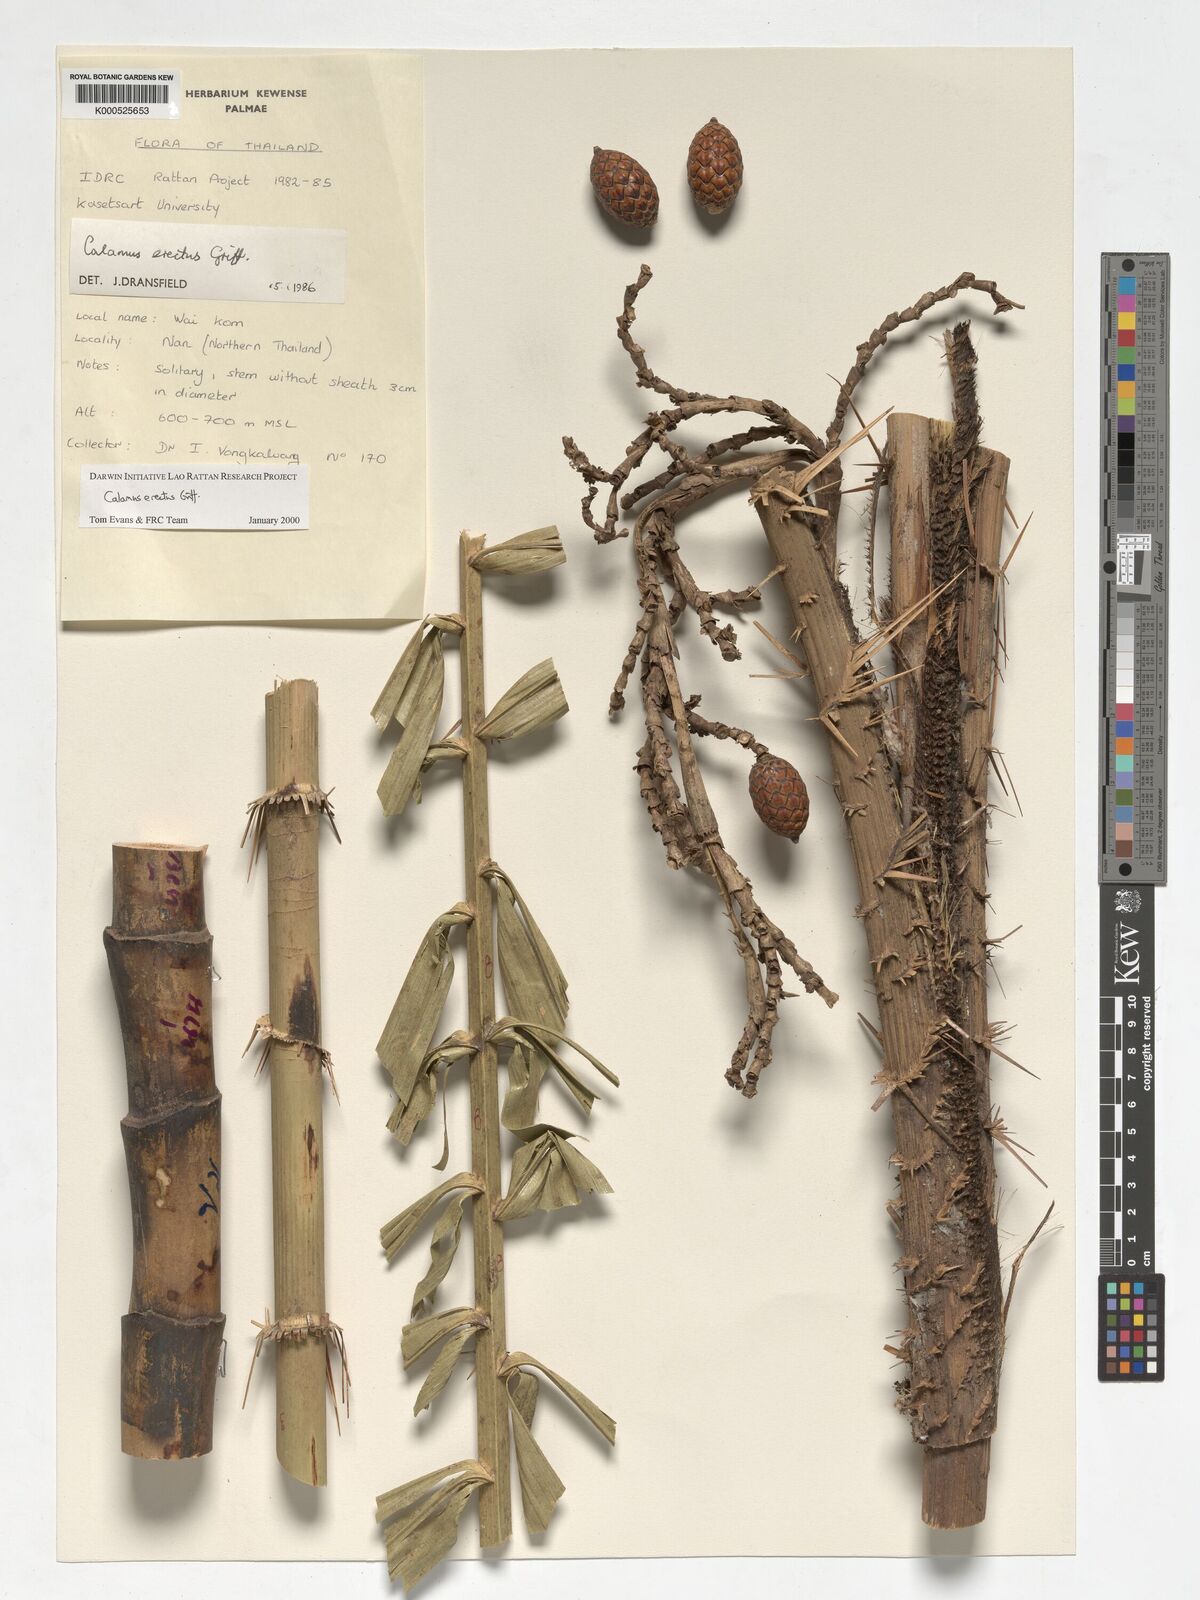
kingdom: Plantae
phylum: Tracheophyta
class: Liliopsida
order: Arecales
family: Arecaceae
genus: Calamus
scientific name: Calamus erectus
